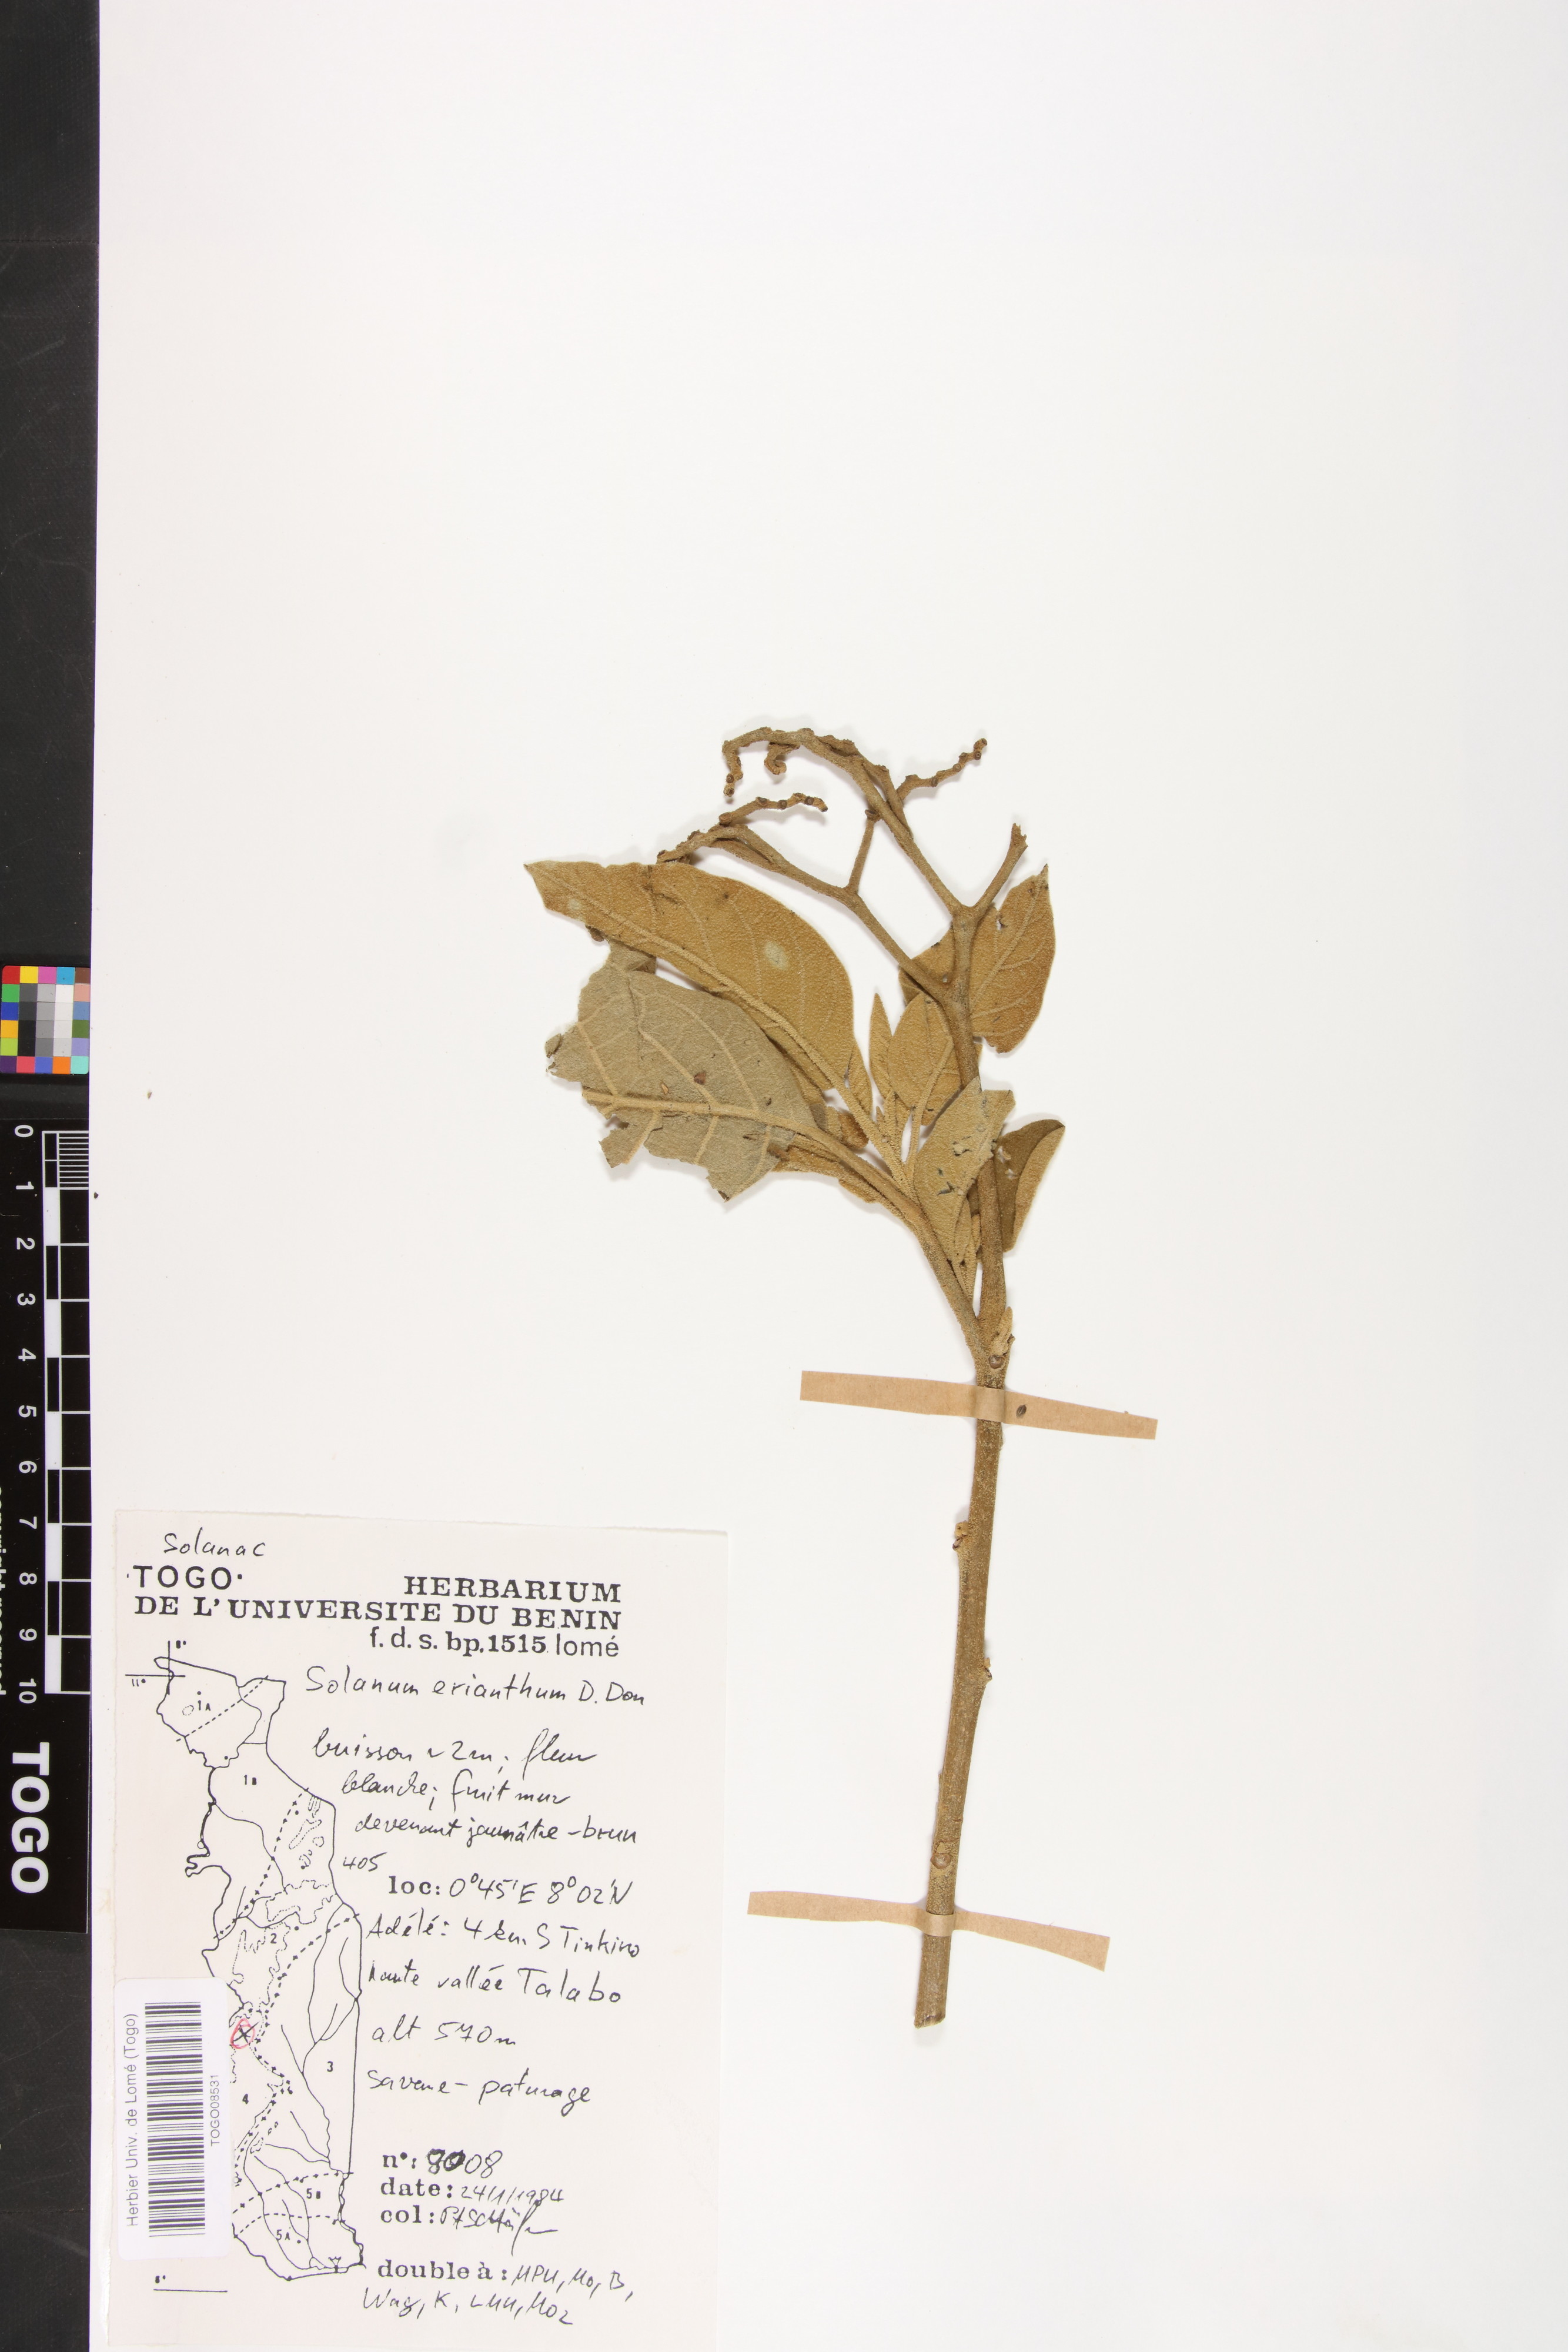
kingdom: Plantae
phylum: Tracheophyta
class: Magnoliopsida
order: Solanales
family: Solanaceae
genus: Solanum
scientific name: Solanum erianthum
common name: Tobacco-tree
